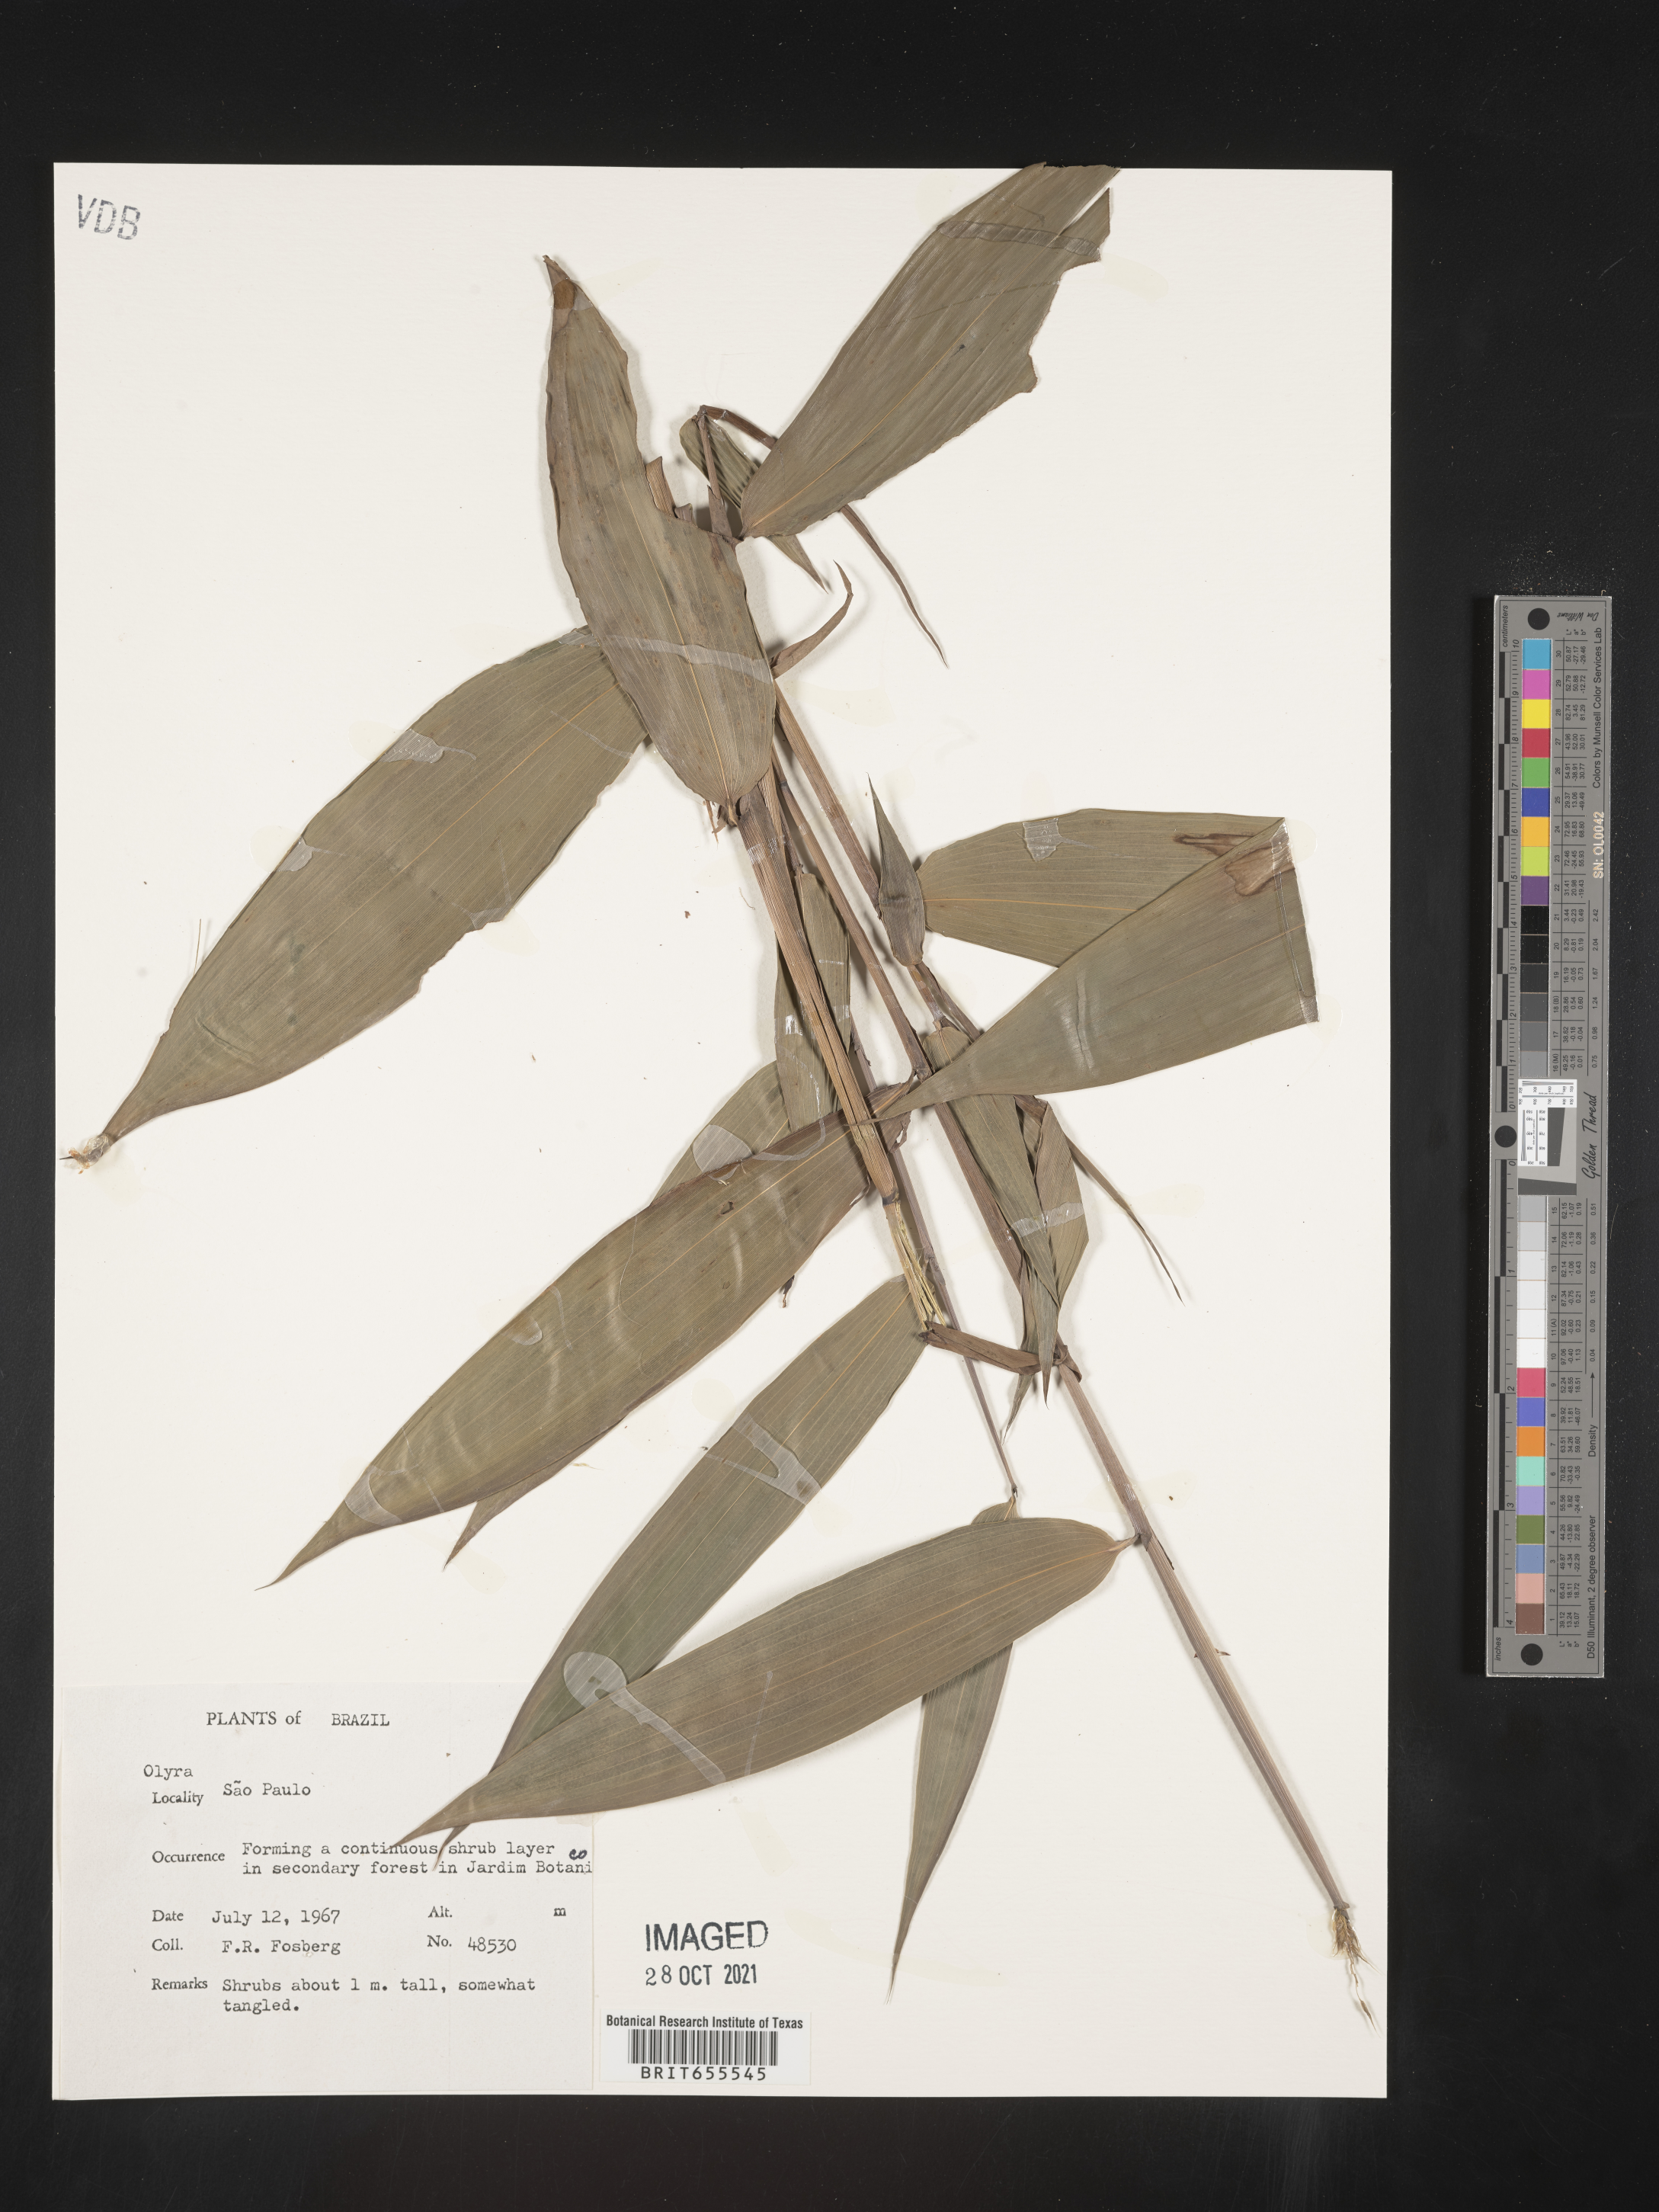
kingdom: Plantae
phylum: Tracheophyta
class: Liliopsida
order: Poales
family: Poaceae
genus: Olyra
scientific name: Olyra
